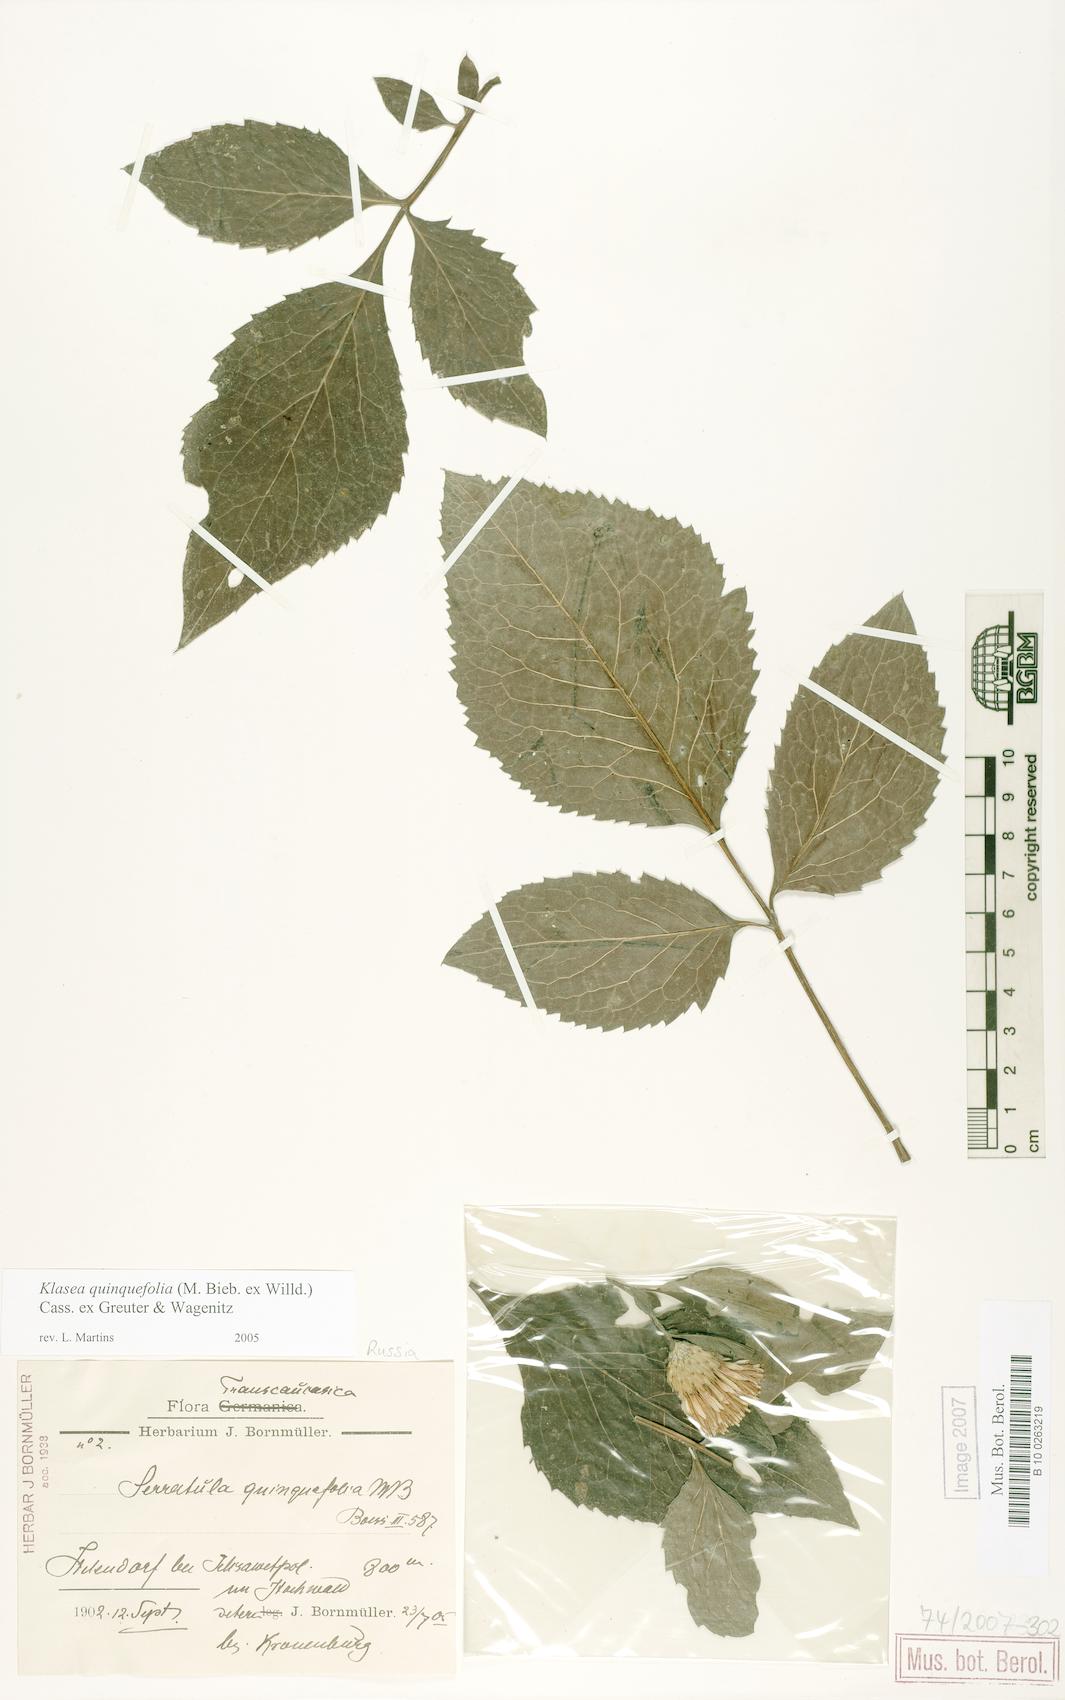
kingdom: Plantae
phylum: Tracheophyta
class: Magnoliopsida
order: Asterales
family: Asteraceae
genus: Klasea
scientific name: Klasea quinquefolia
